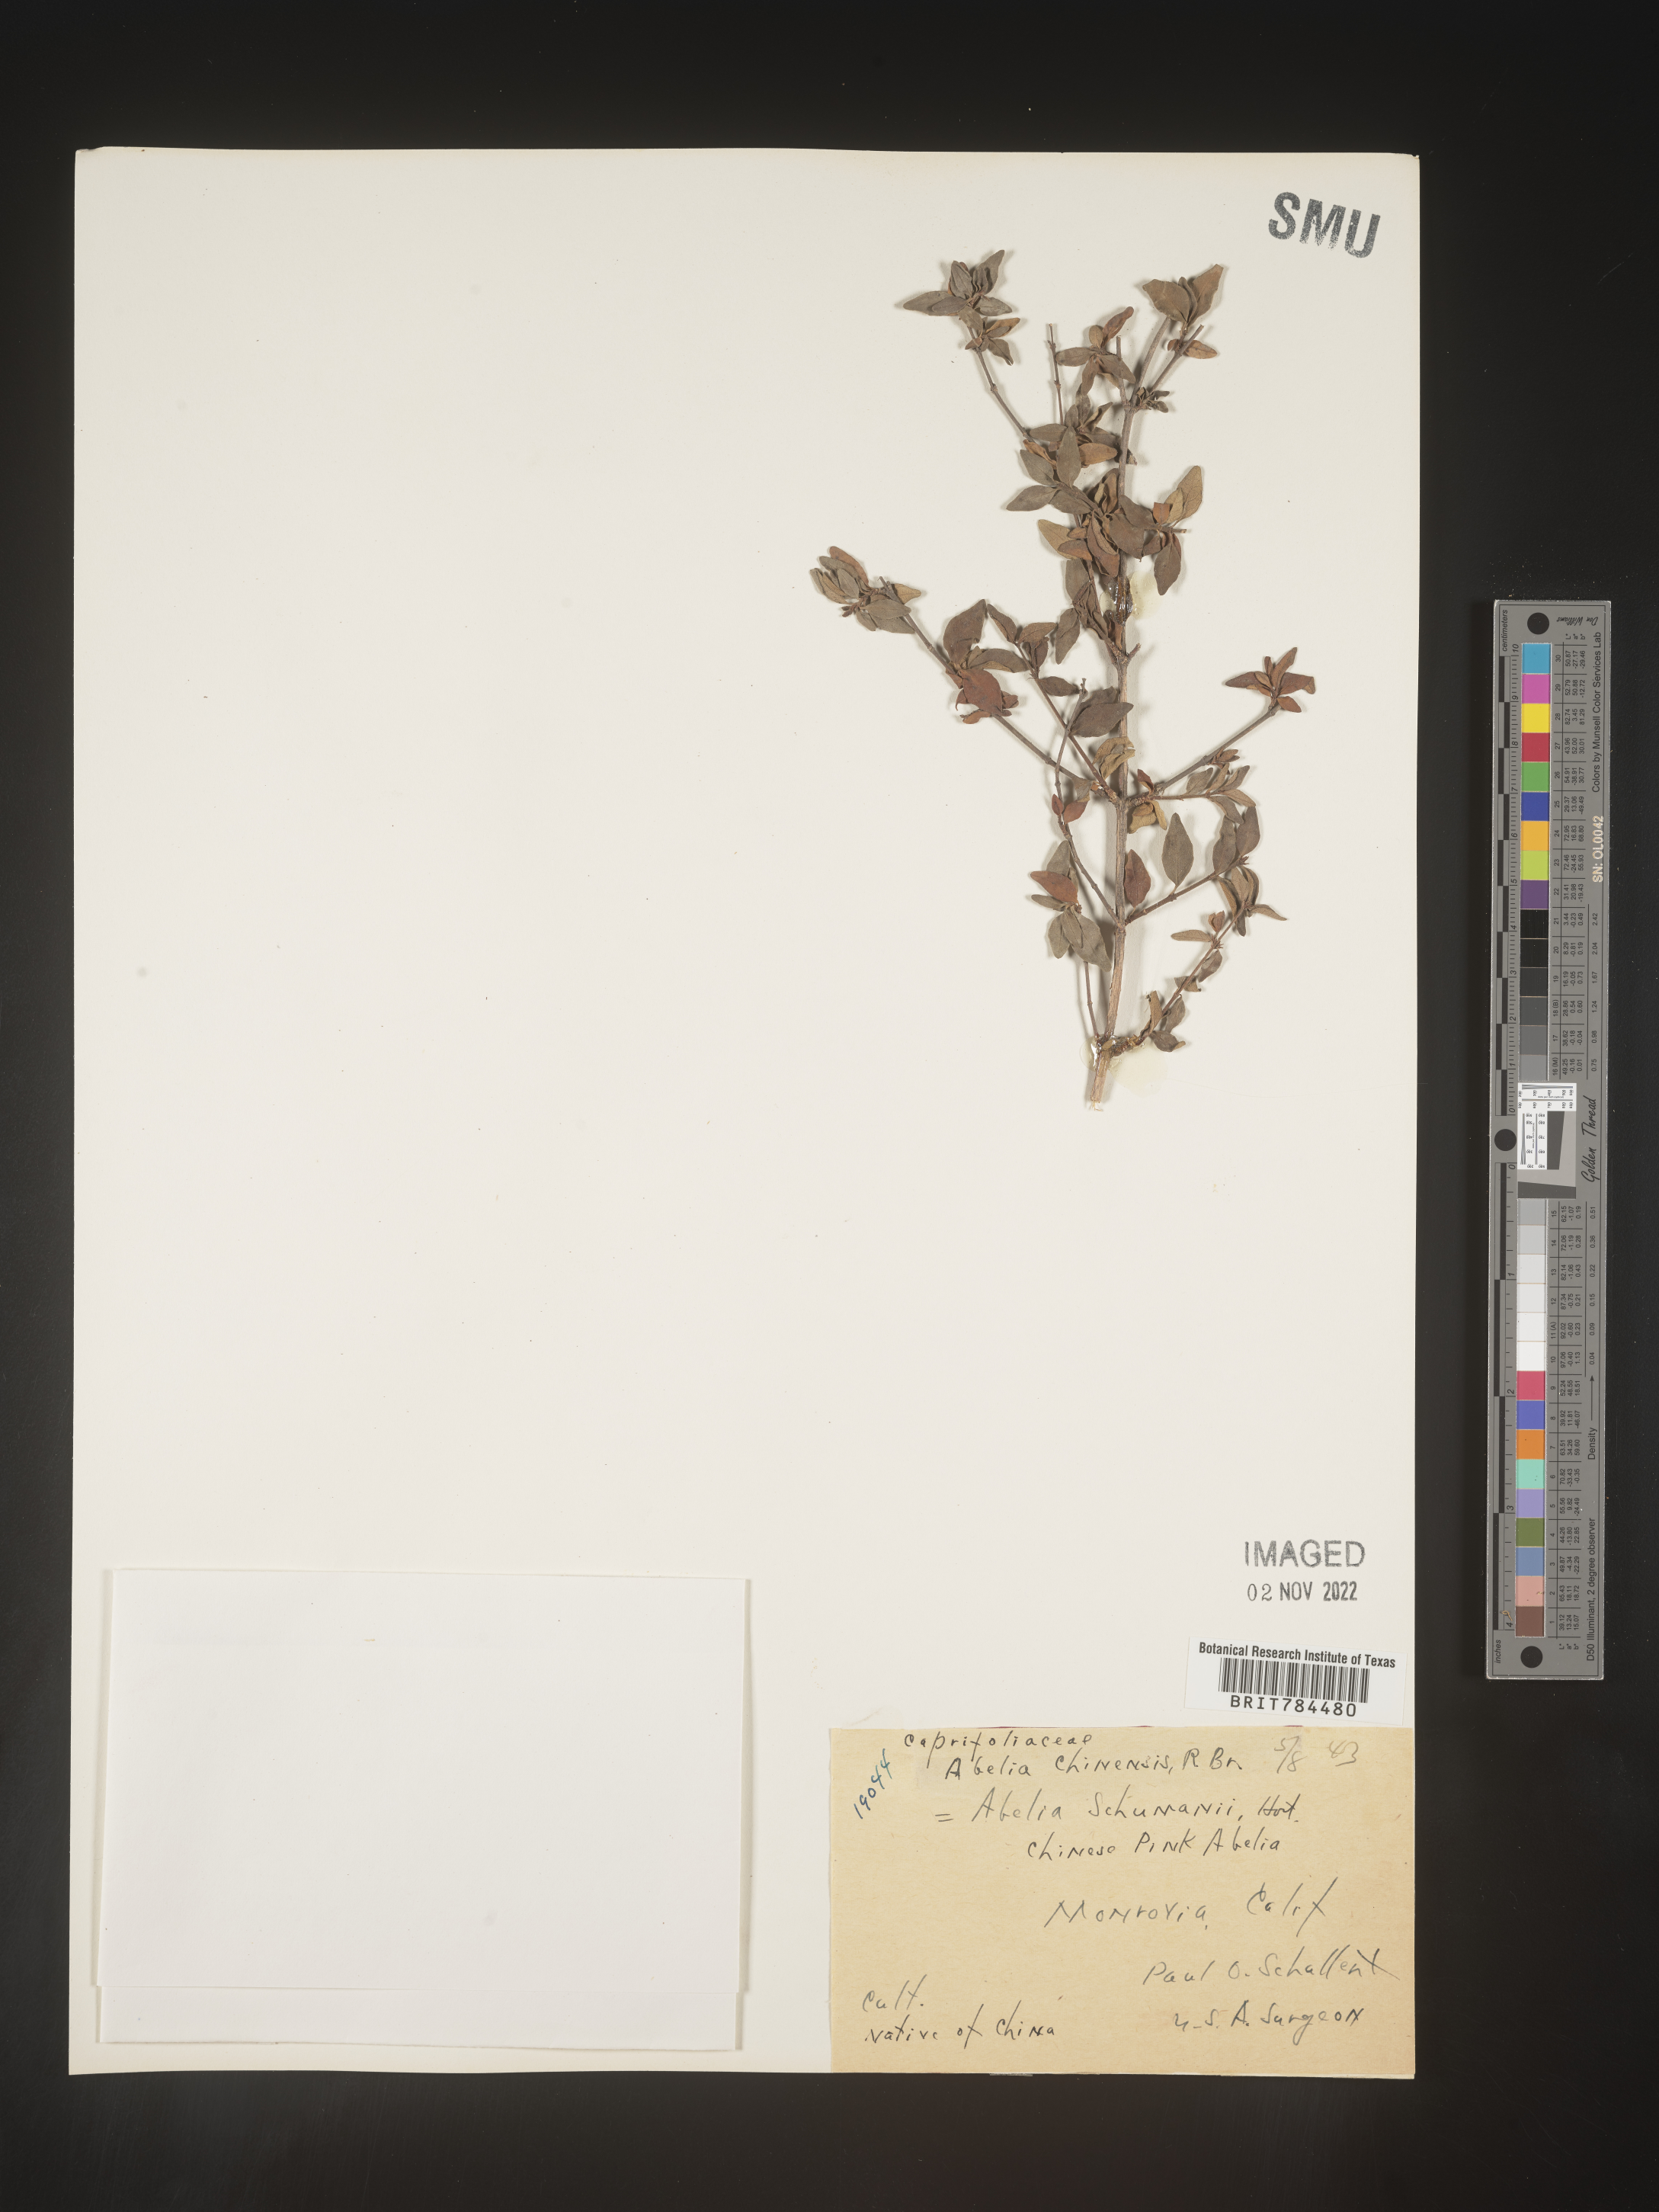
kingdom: Plantae
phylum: Tracheophyta
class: Magnoliopsida
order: Dipsacales
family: Caprifoliaceae
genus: Abelia
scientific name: Abelia
